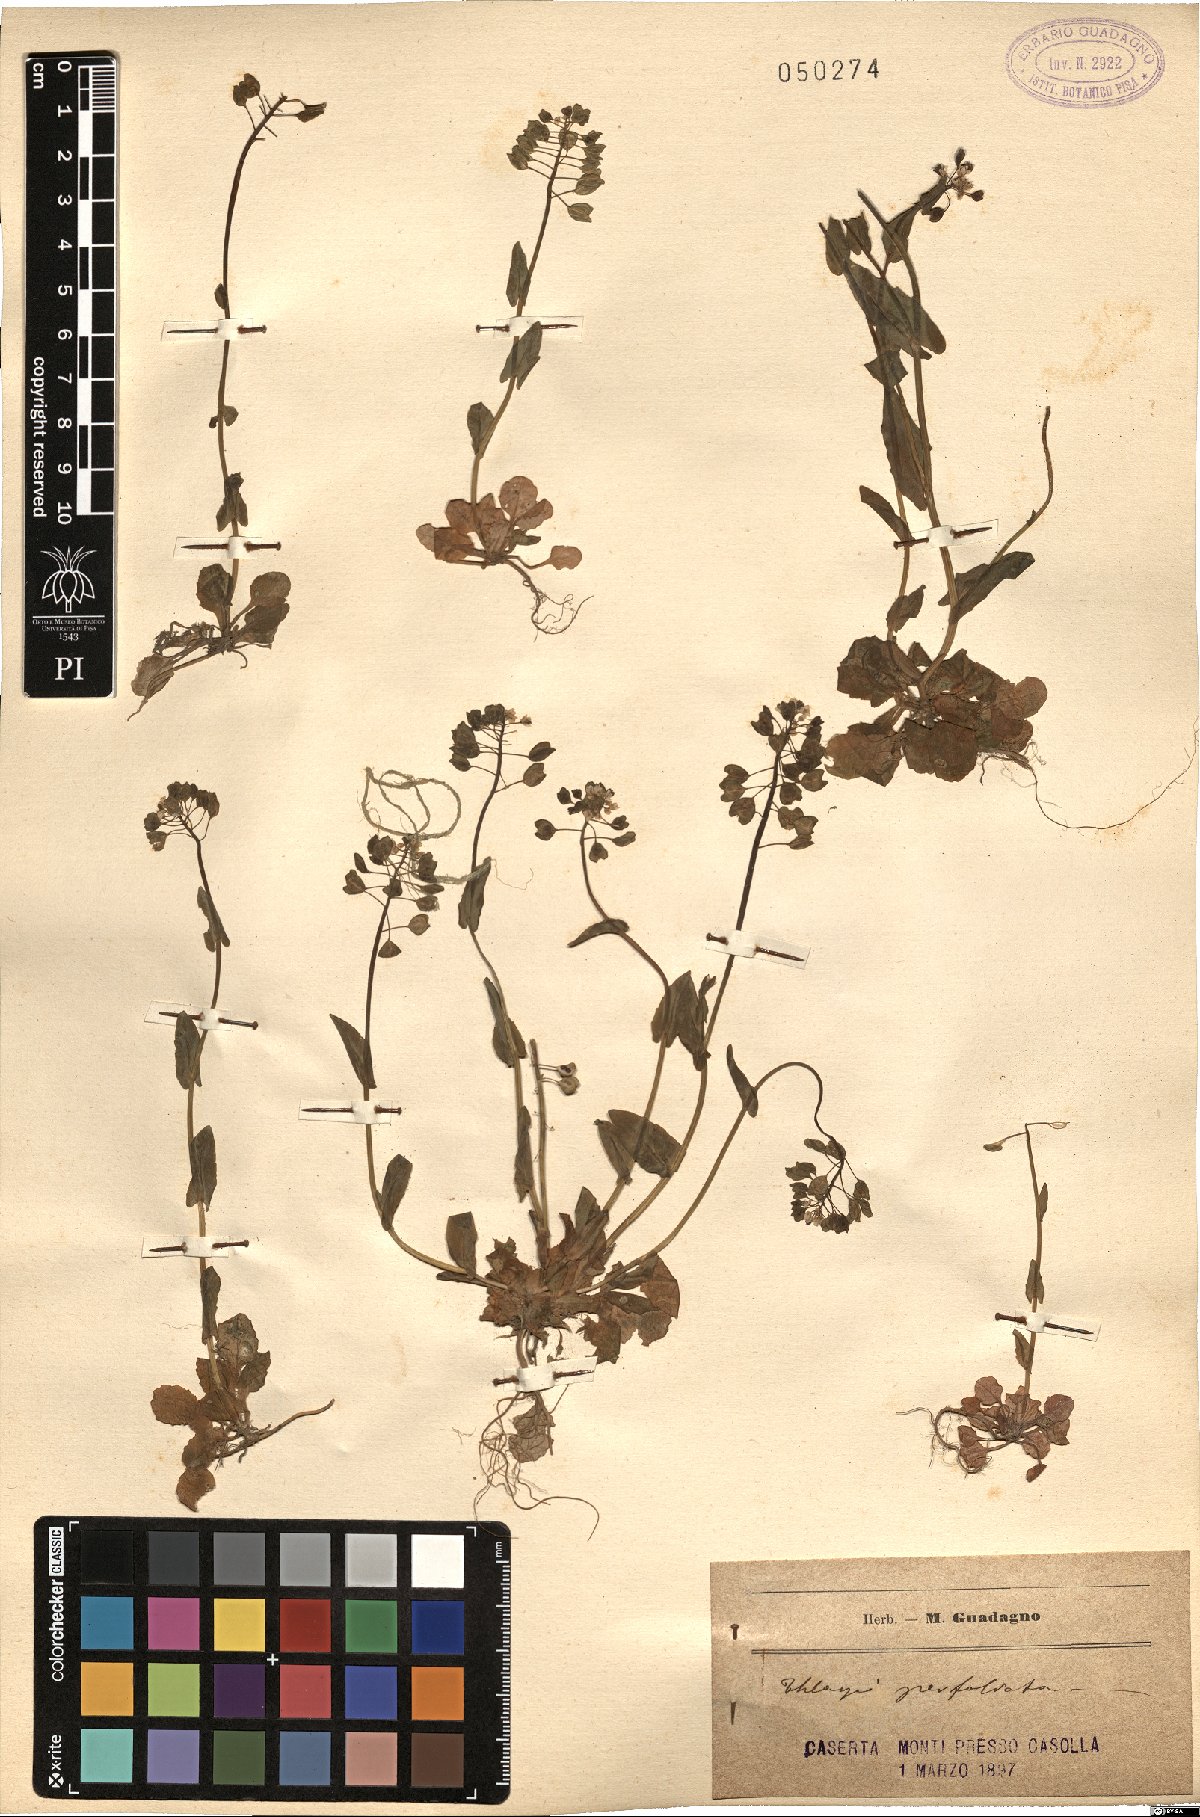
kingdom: Plantae
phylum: Tracheophyta
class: Magnoliopsida
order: Brassicales
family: Brassicaceae
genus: Noccaea
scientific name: Noccaea perfoliata
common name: Perfoliate pennycress
